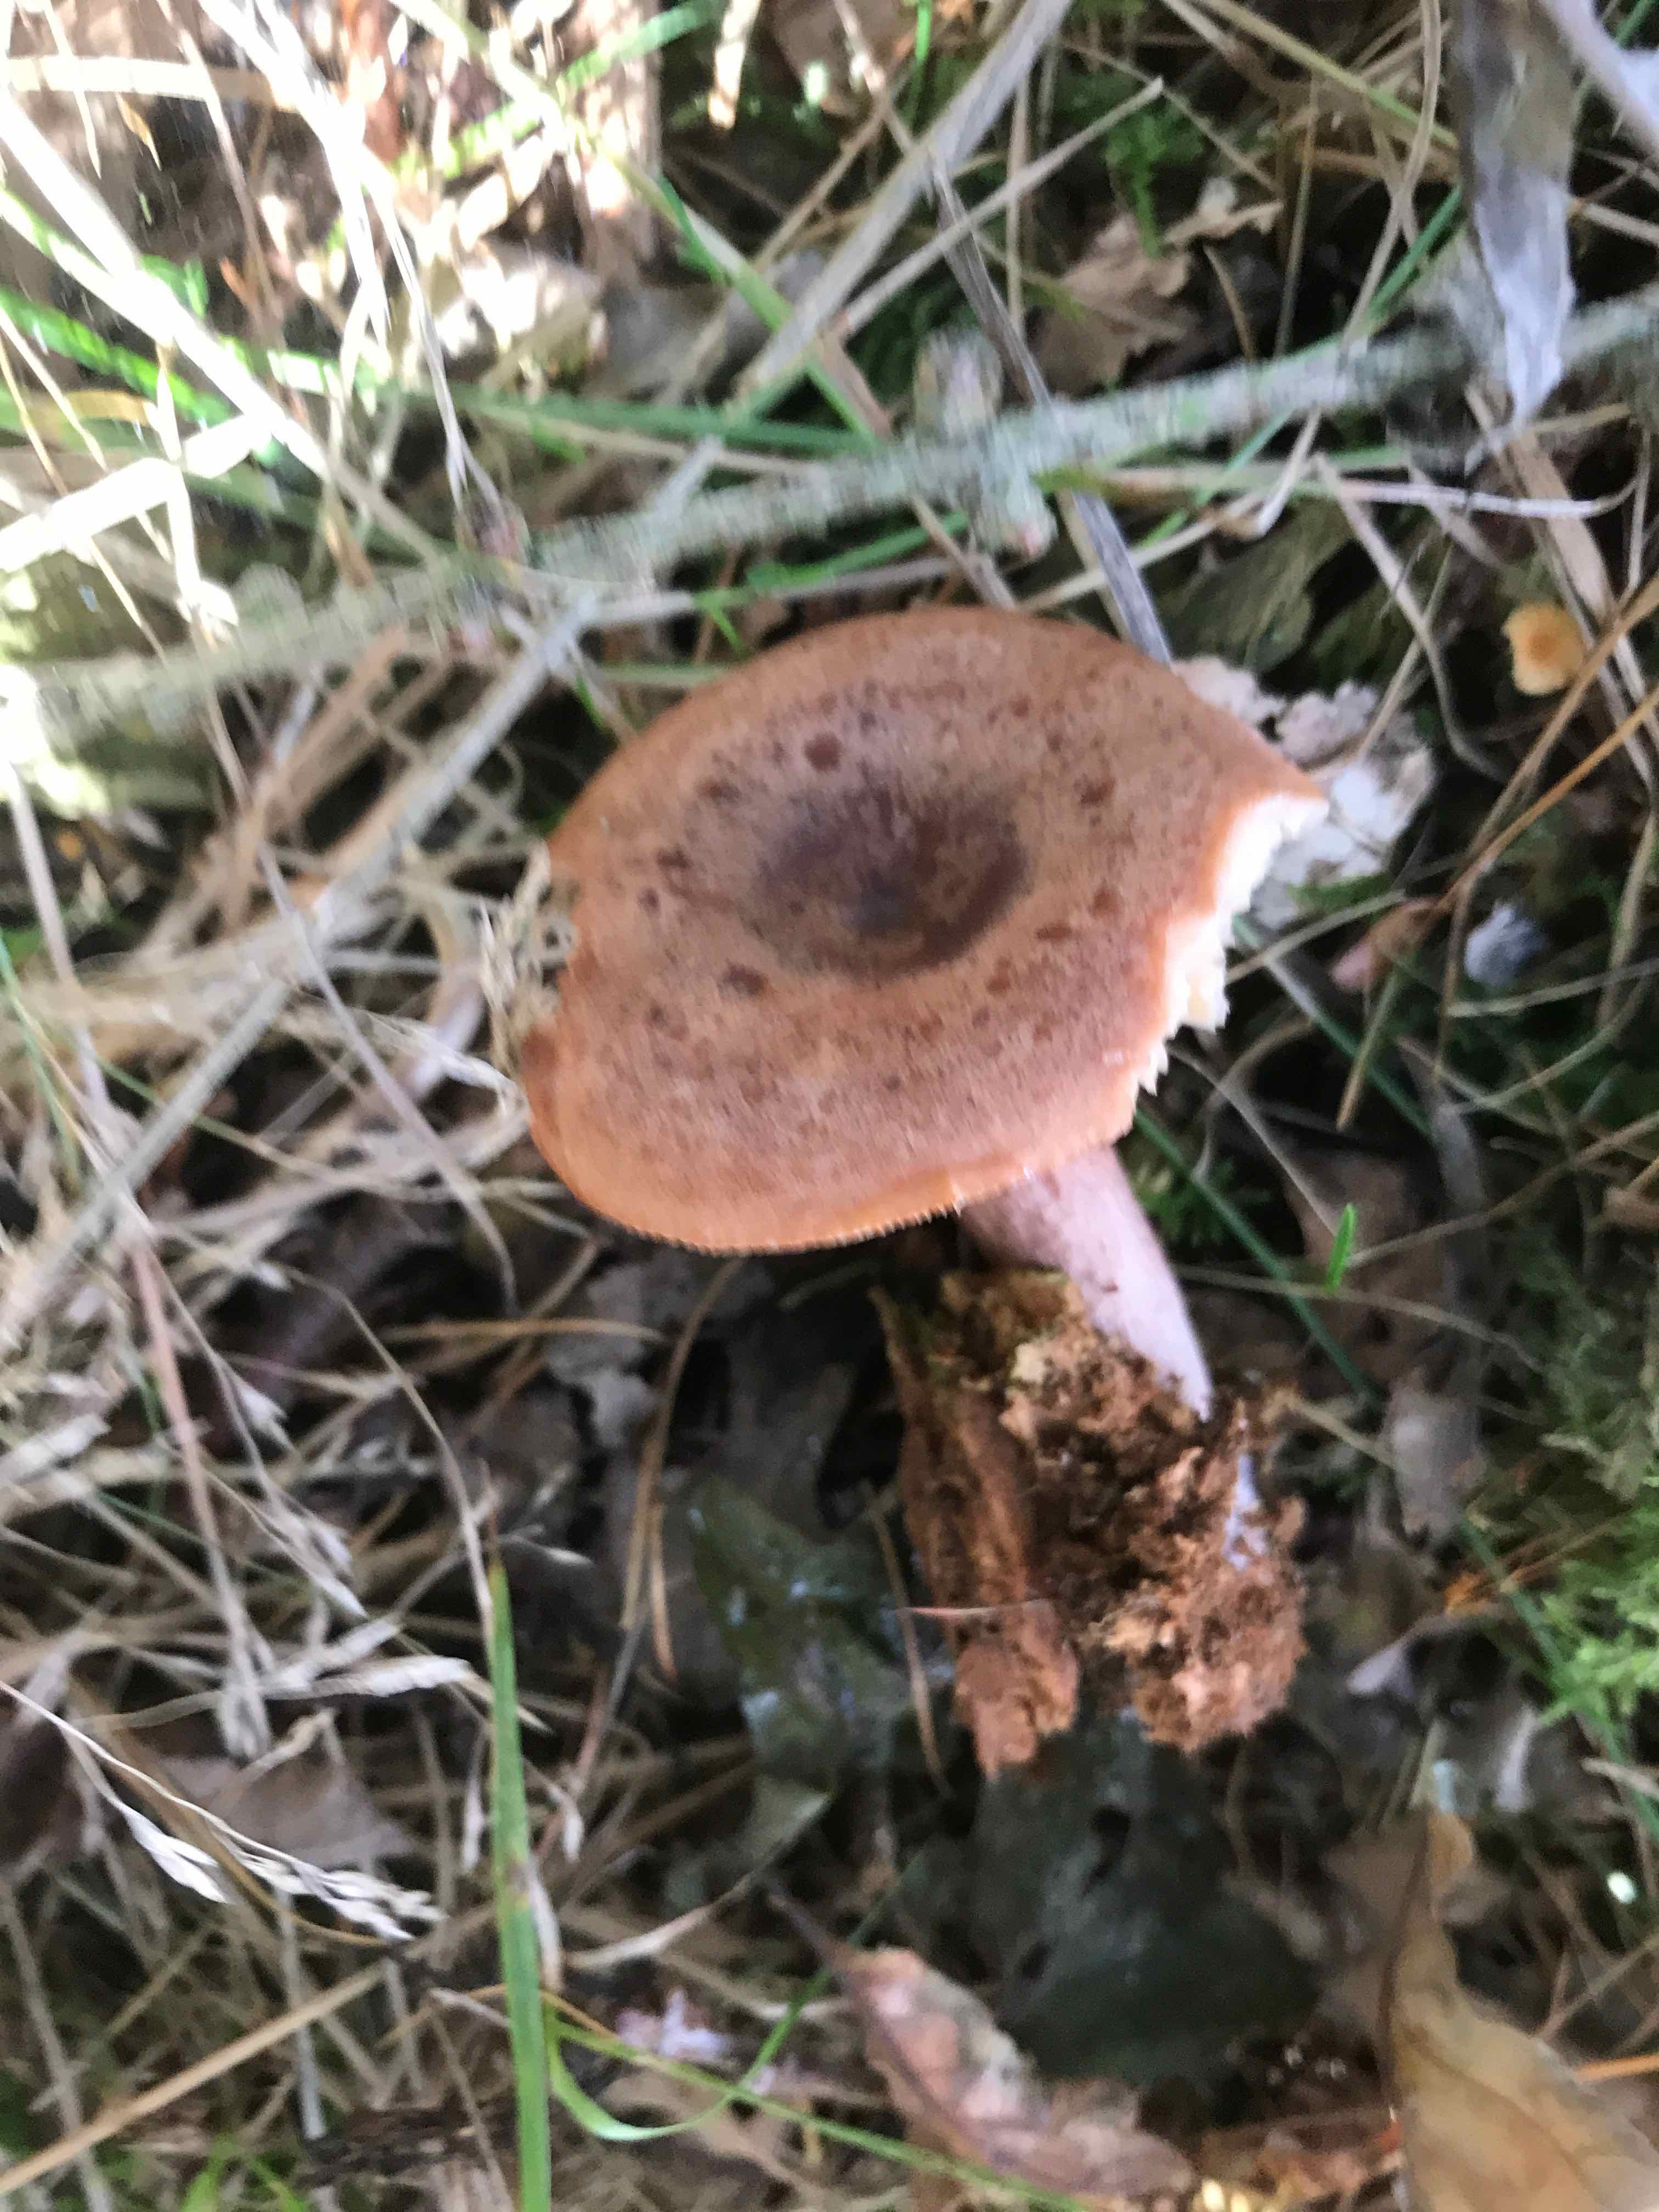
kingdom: Fungi
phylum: Basidiomycota
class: Agaricomycetes
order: Russulales
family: Russulaceae
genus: Lactarius
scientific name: Lactarius quietus
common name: ege-mælkehat
